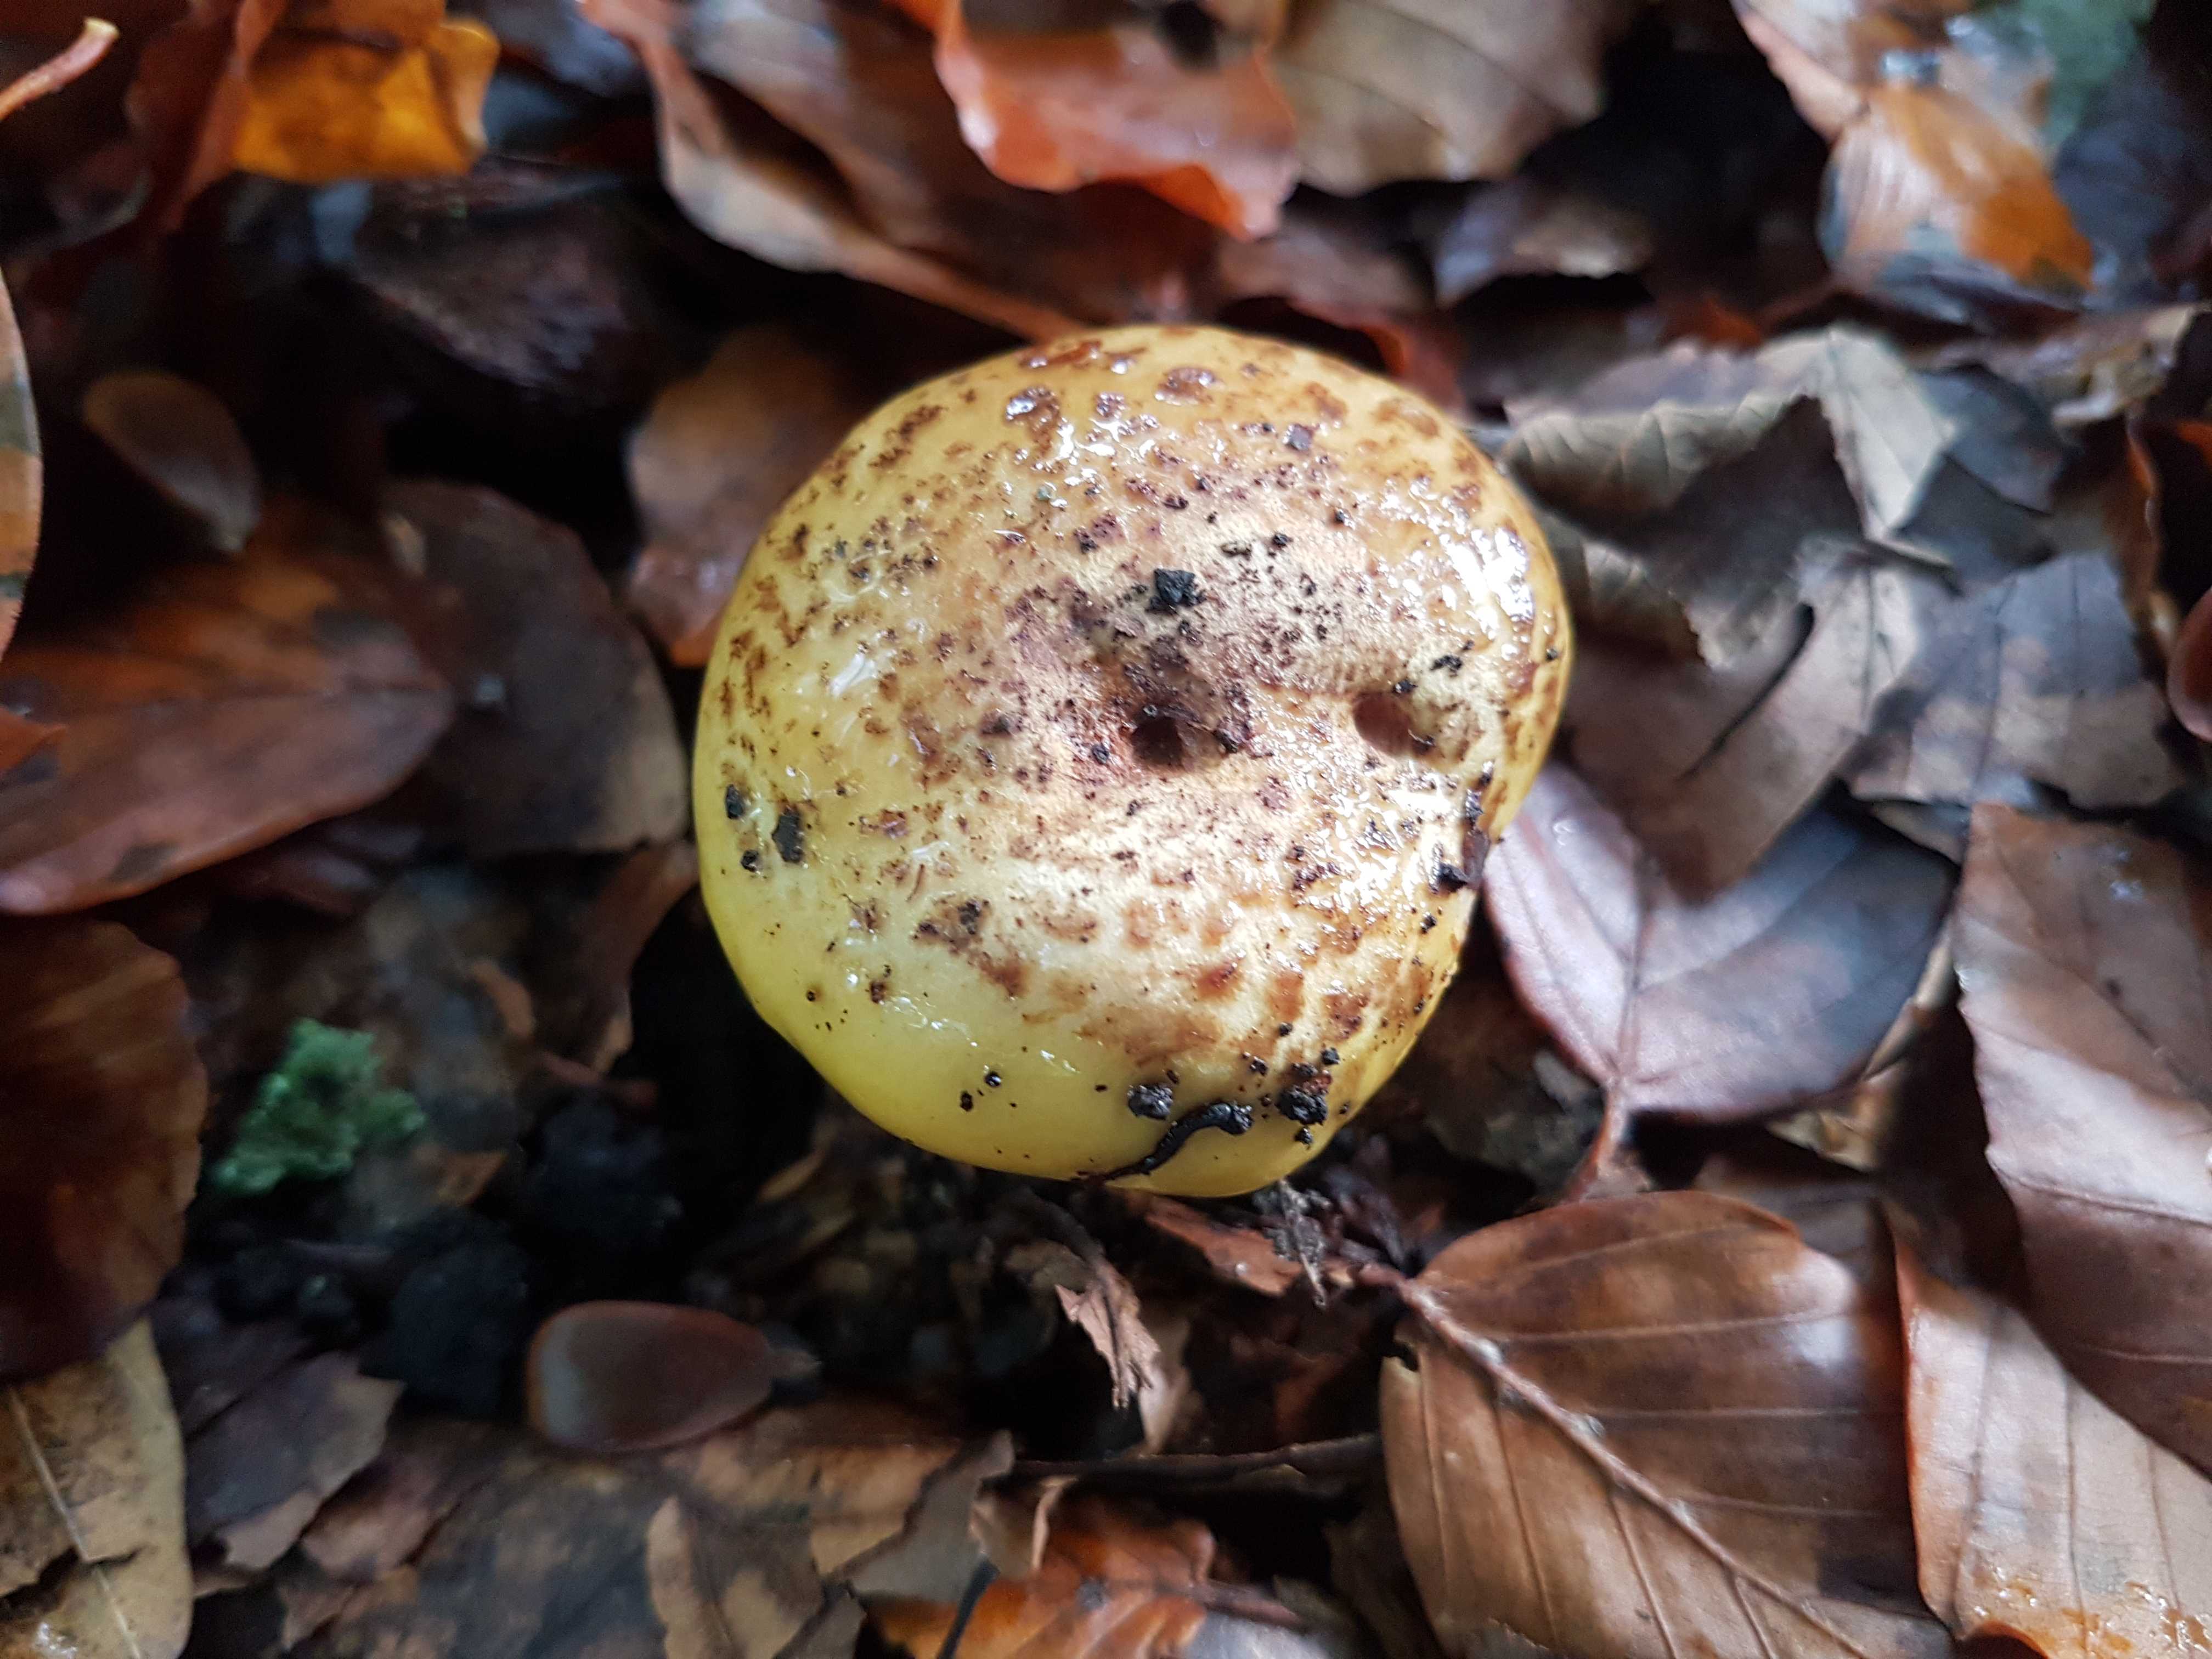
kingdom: Fungi
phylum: Basidiomycota
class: Agaricomycetes
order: Agaricales
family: Cortinariaceae
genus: Calonarius
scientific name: Calonarius alcalinophilus
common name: gyldenbrun slørhat
